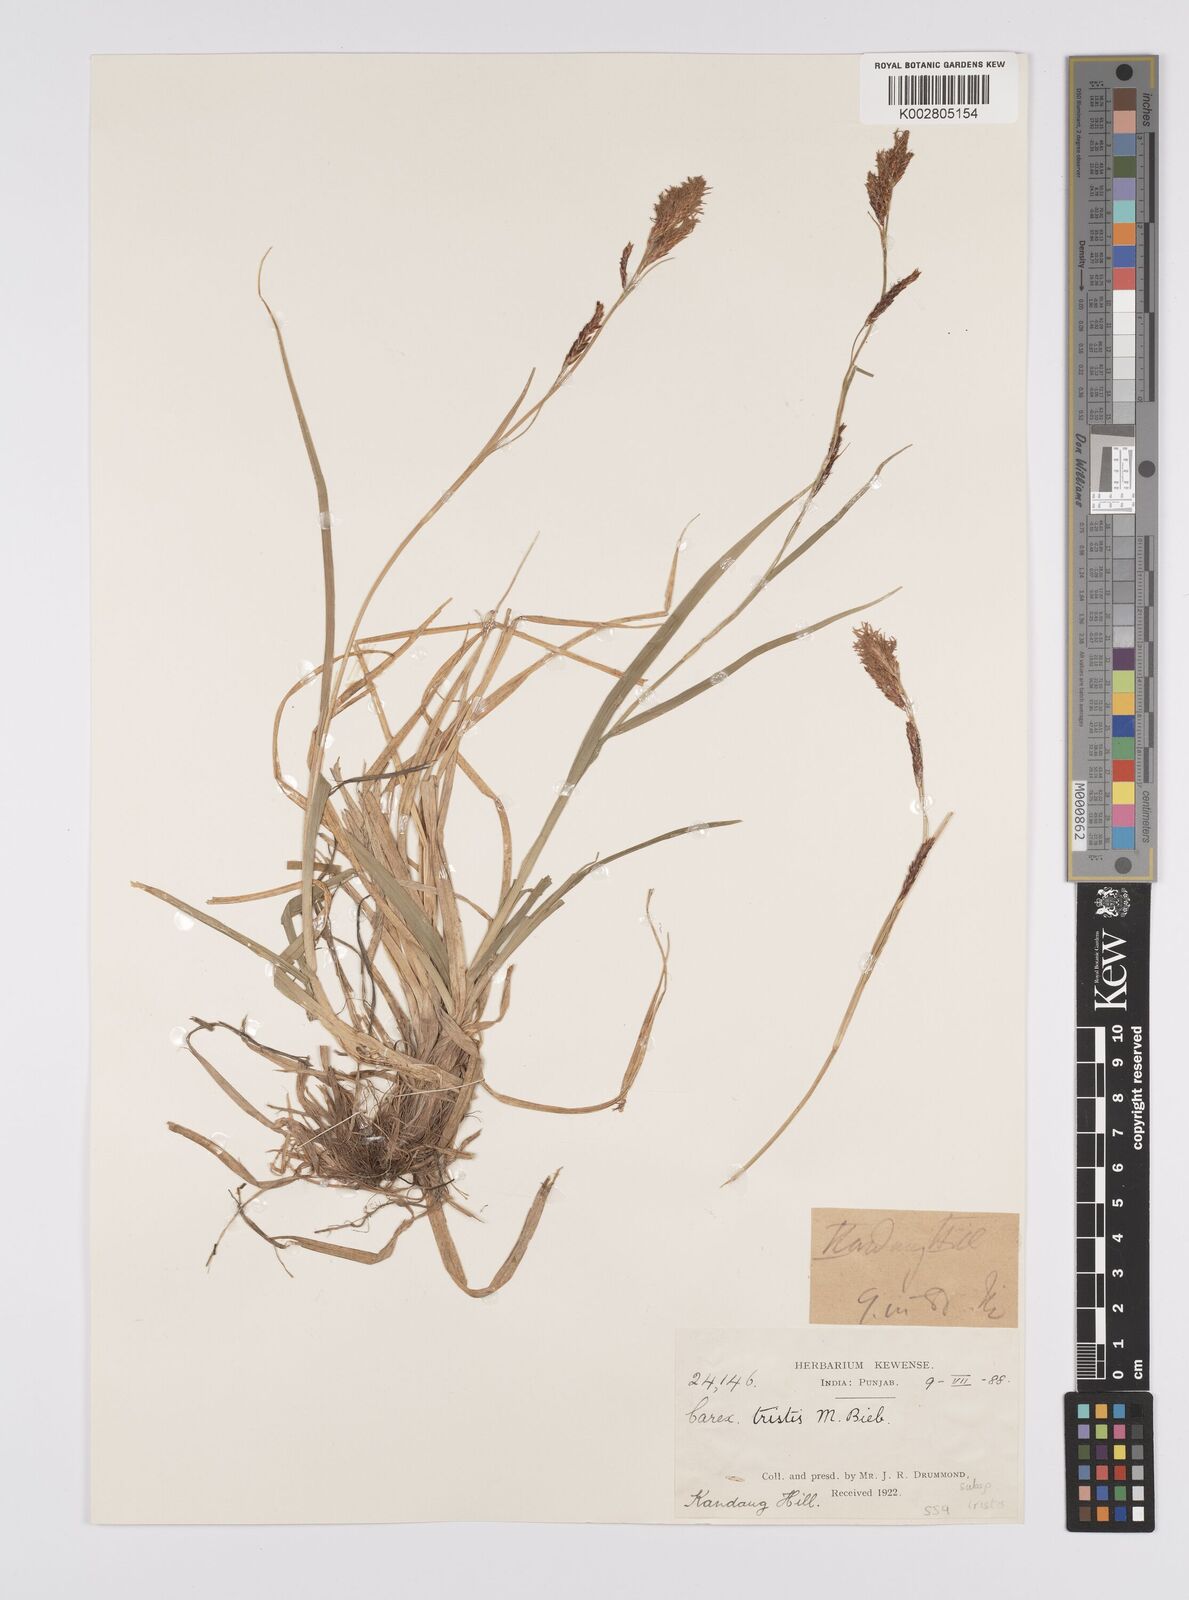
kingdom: Plantae
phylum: Tracheophyta
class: Liliopsida
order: Poales
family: Cyperaceae
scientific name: Cyperaceae
